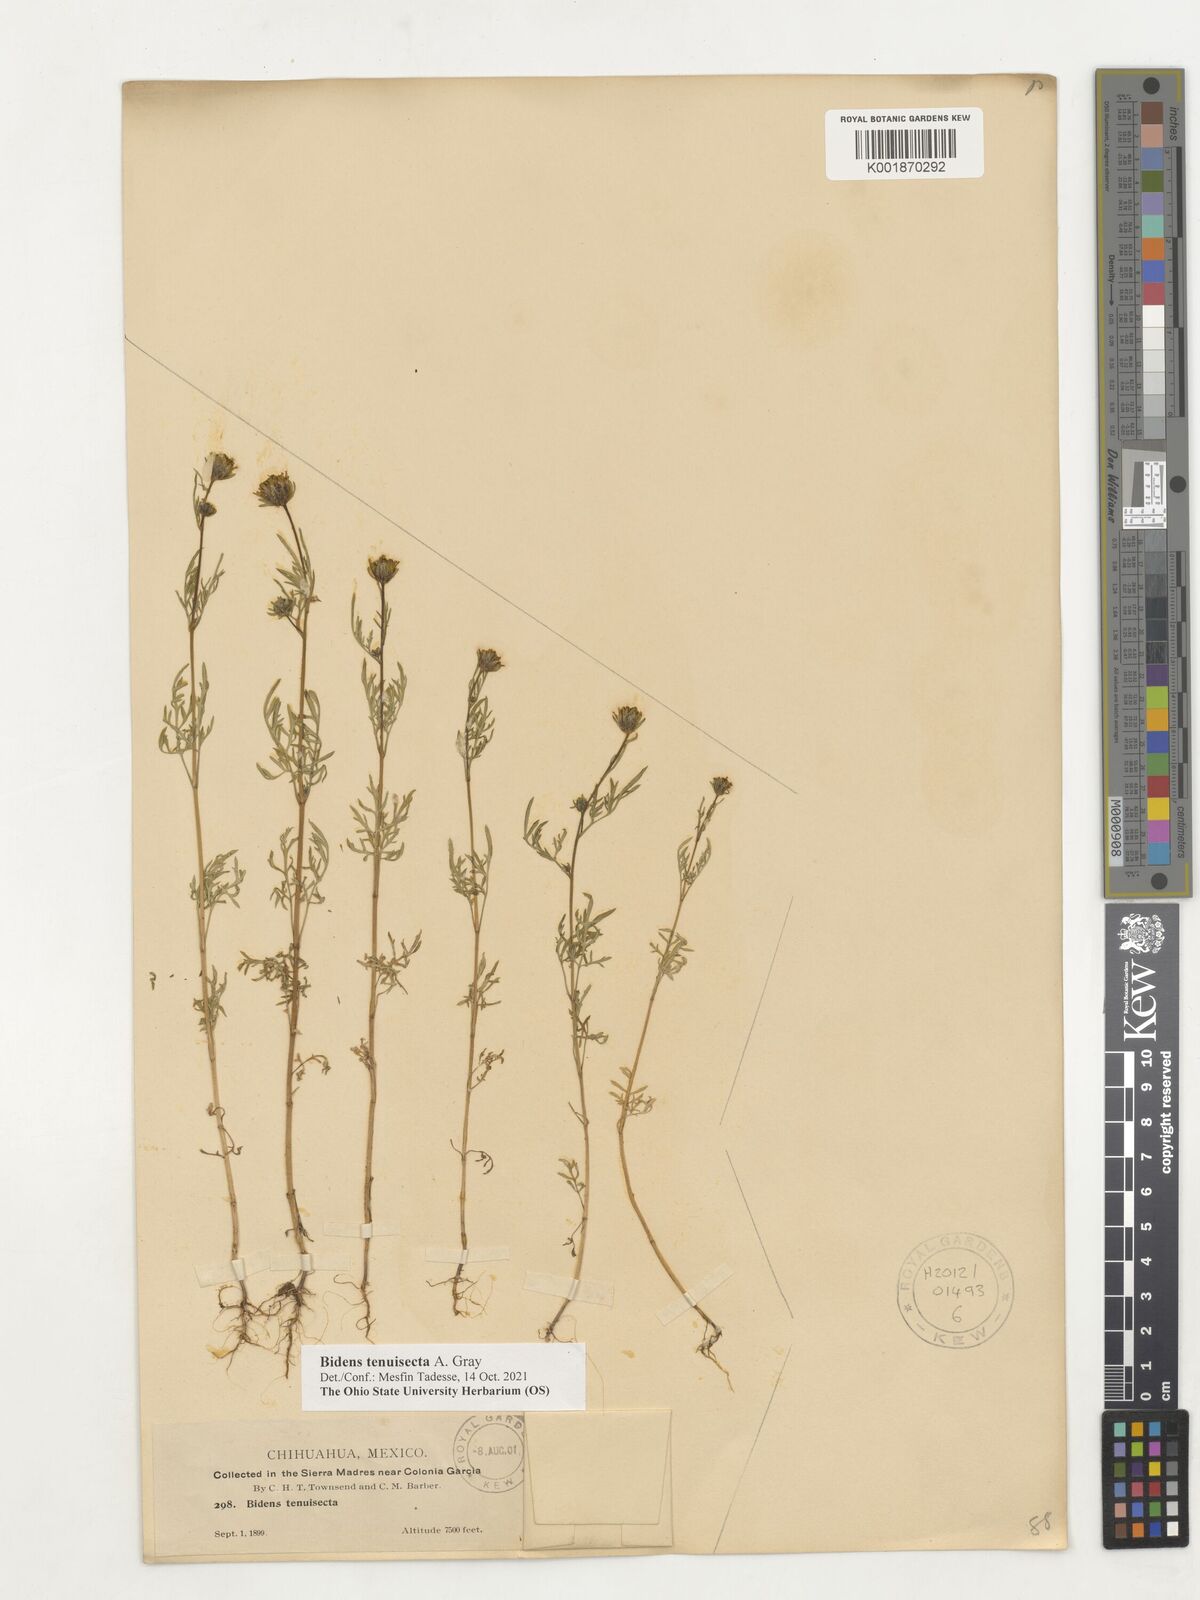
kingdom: Plantae
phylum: Tracheophyta
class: Magnoliopsida
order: Asterales
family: Asteraceae
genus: Bidens
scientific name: Bidens tenuisecta
